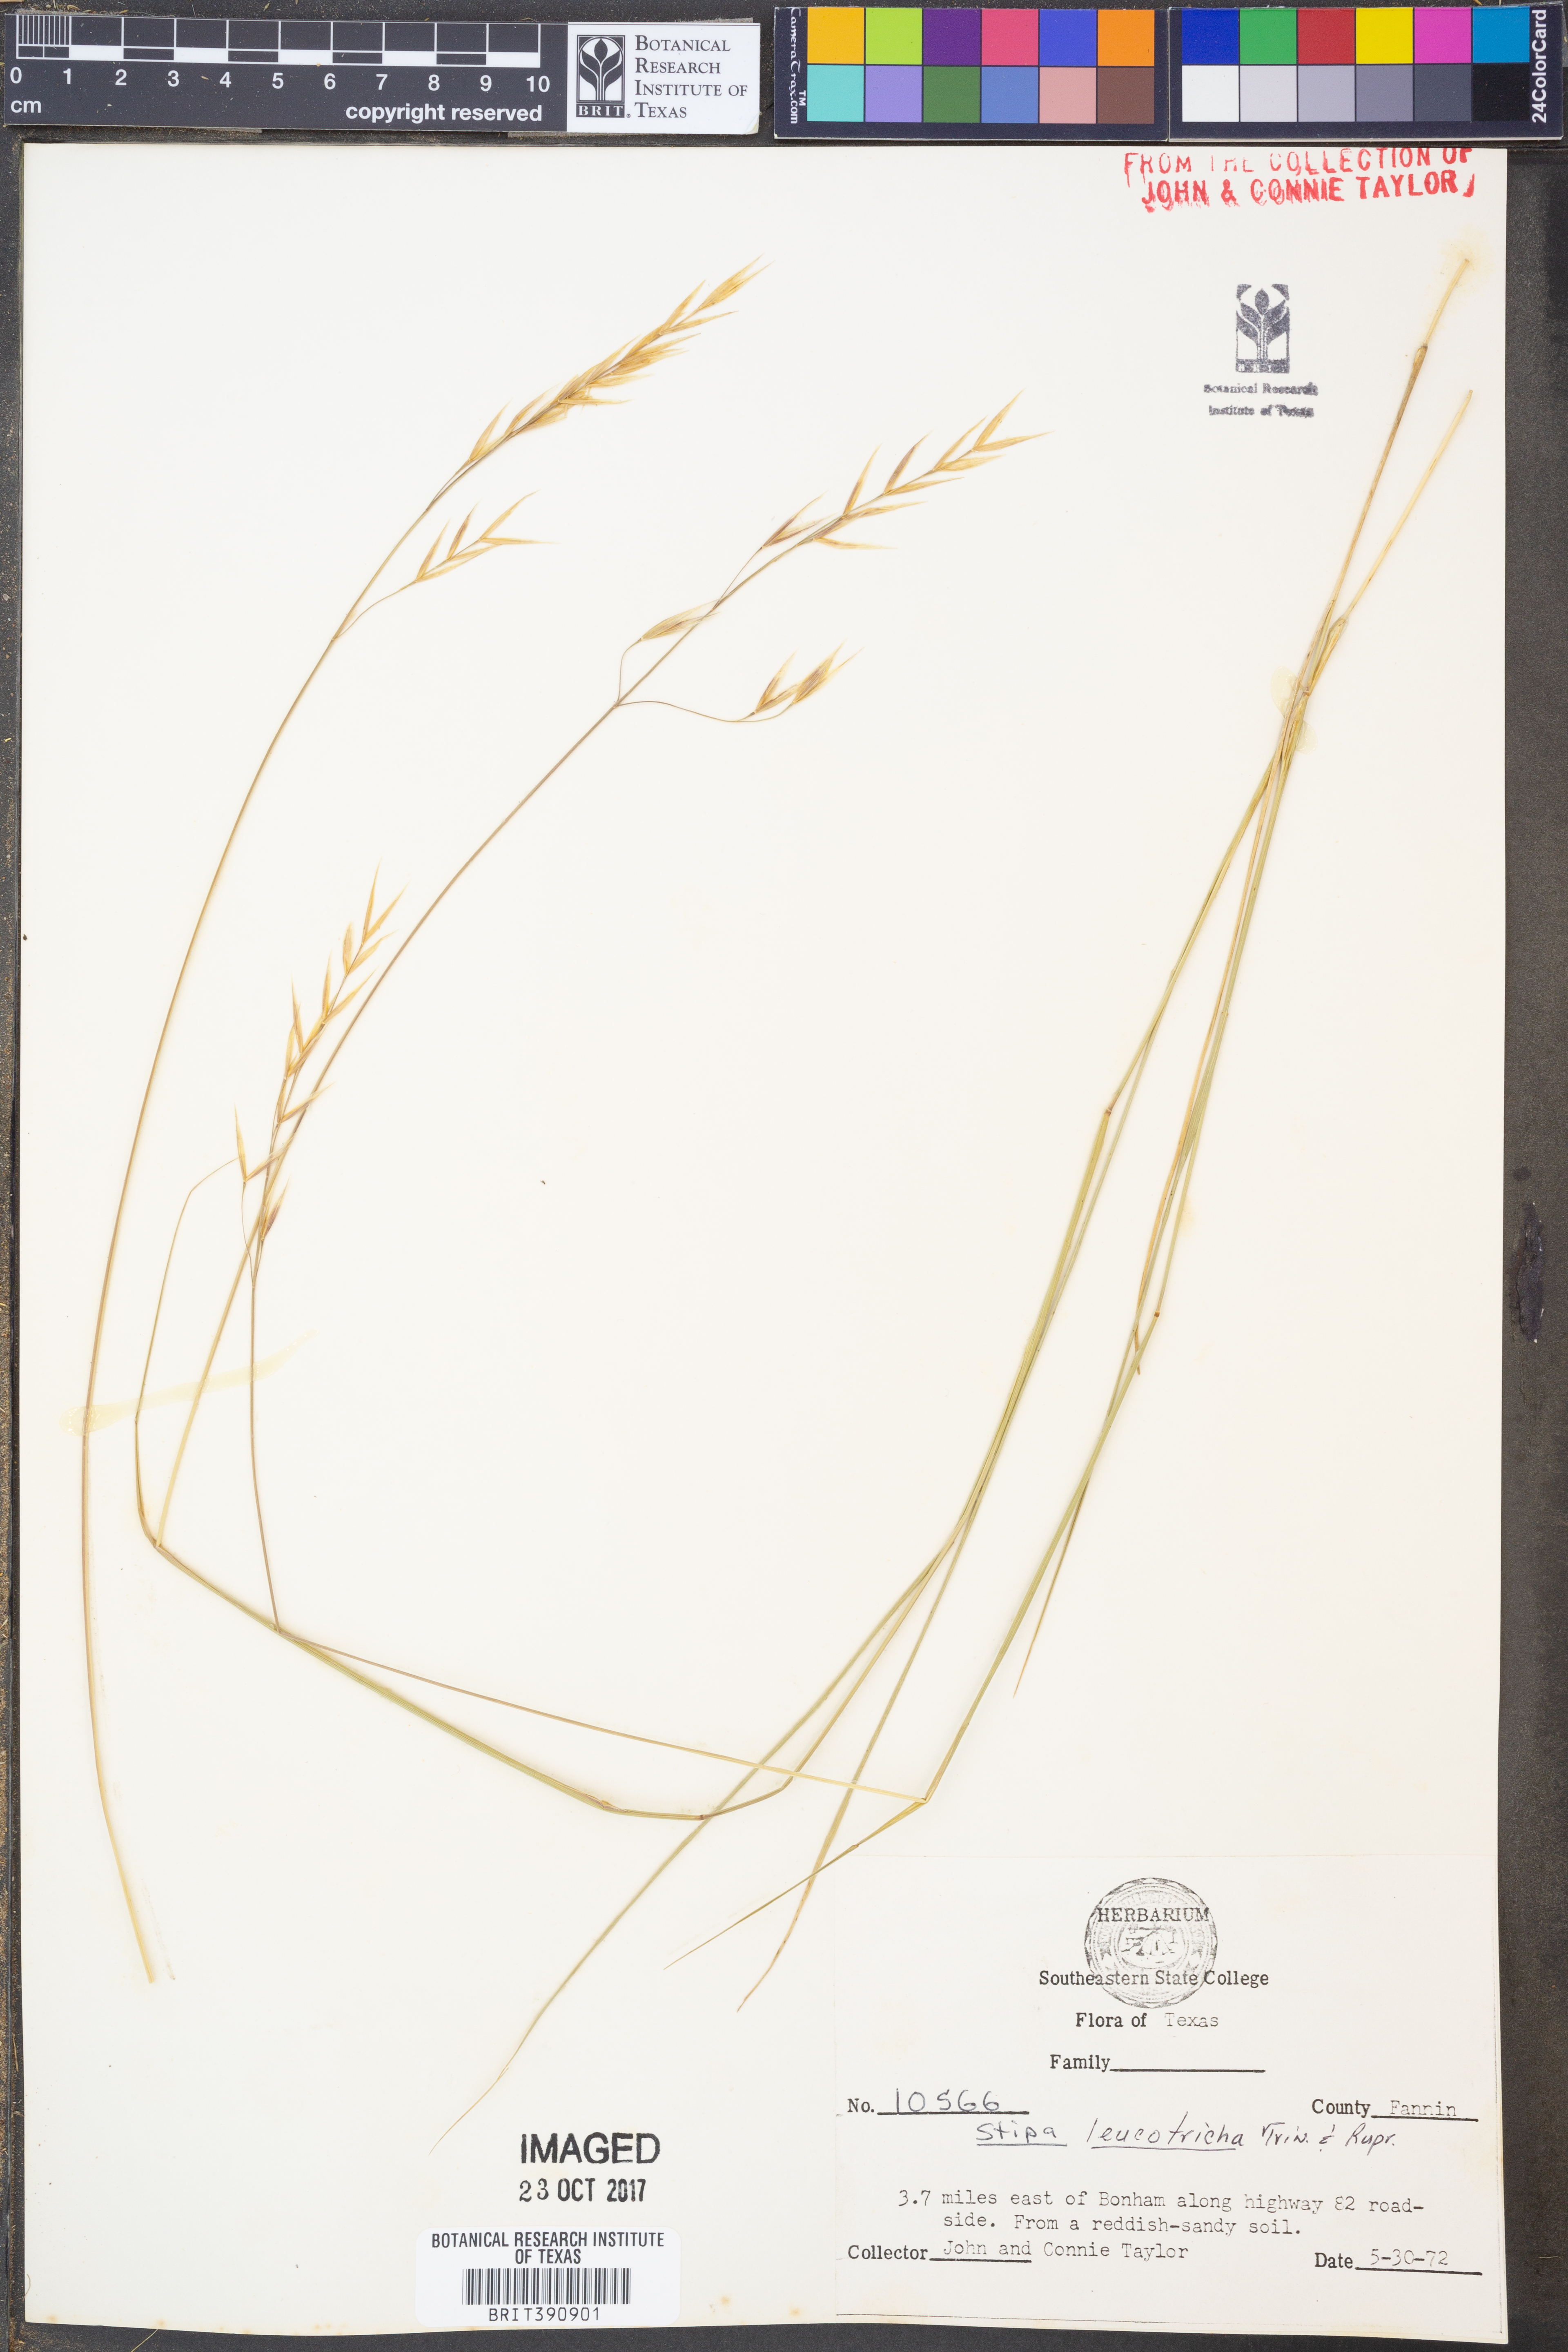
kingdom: Plantae
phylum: Tracheophyta
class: Liliopsida
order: Poales
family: Poaceae
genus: Nassella
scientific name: Nassella leucotricha
